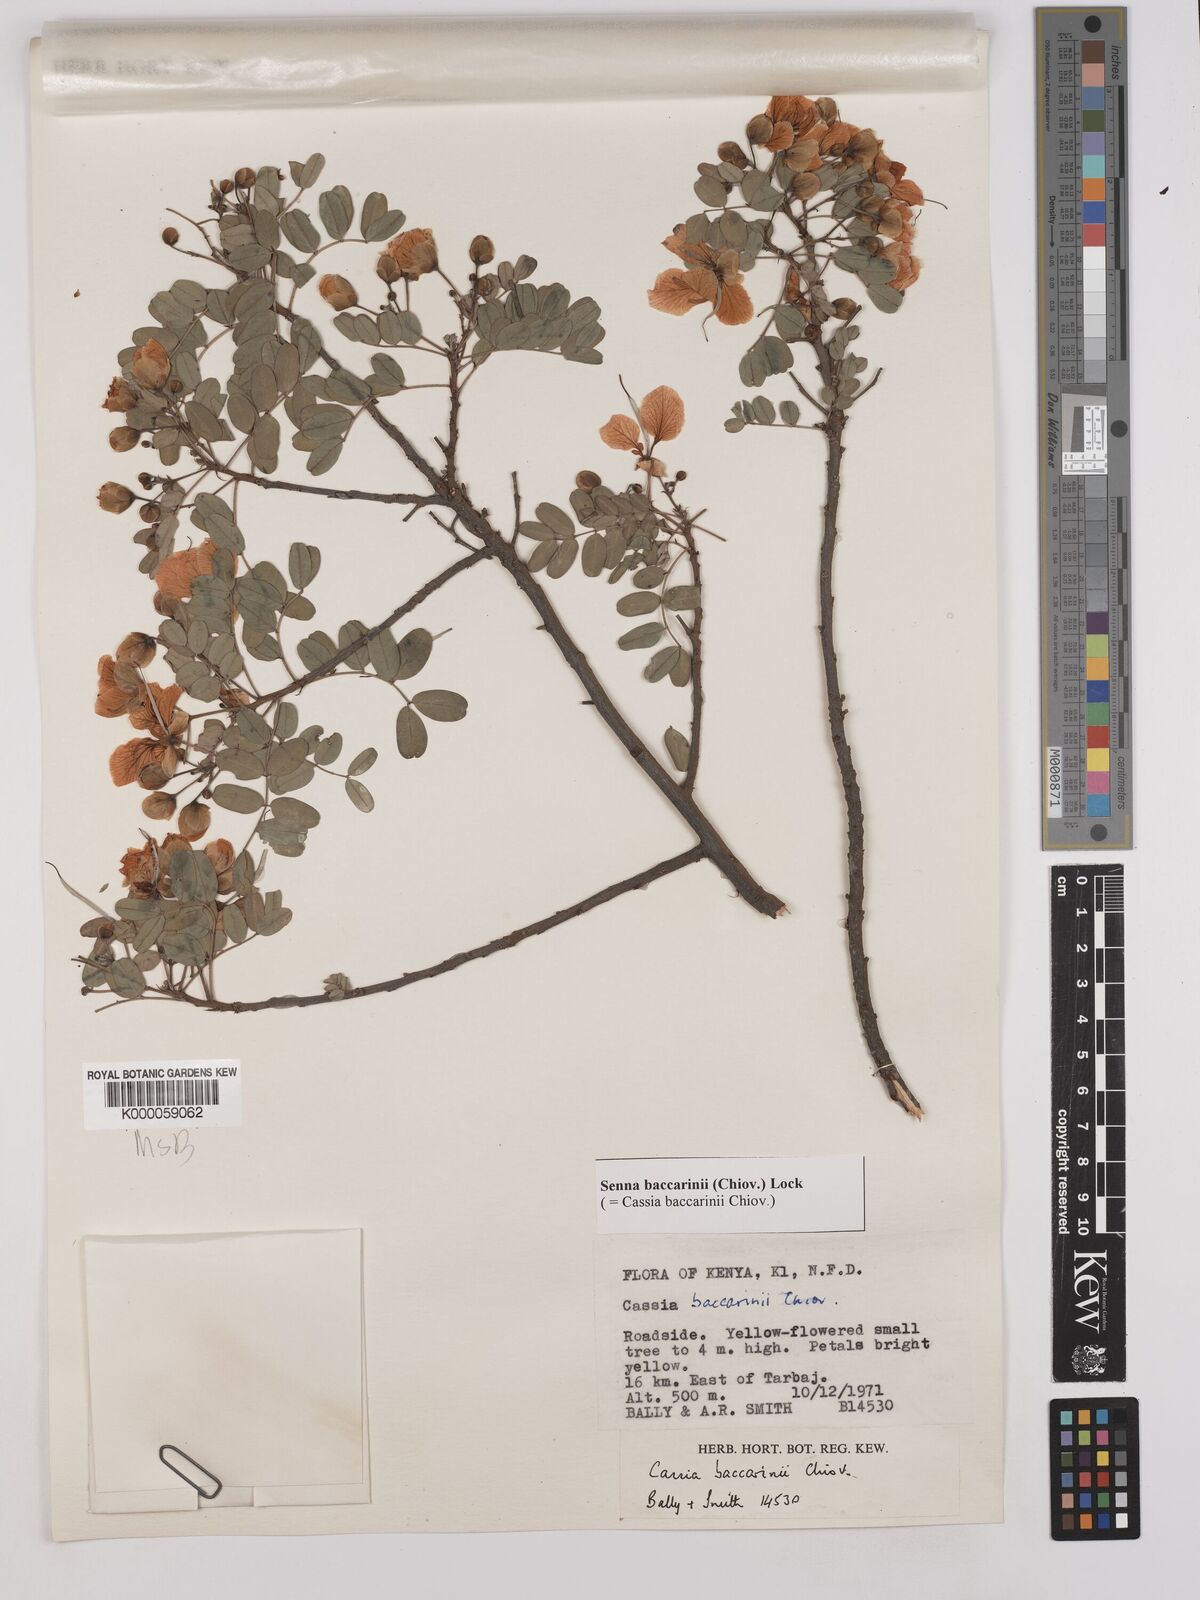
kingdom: Plantae
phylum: Tracheophyta
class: Magnoliopsida
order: Fabales
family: Fabaceae
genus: Senna
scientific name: Senna baccarinii
